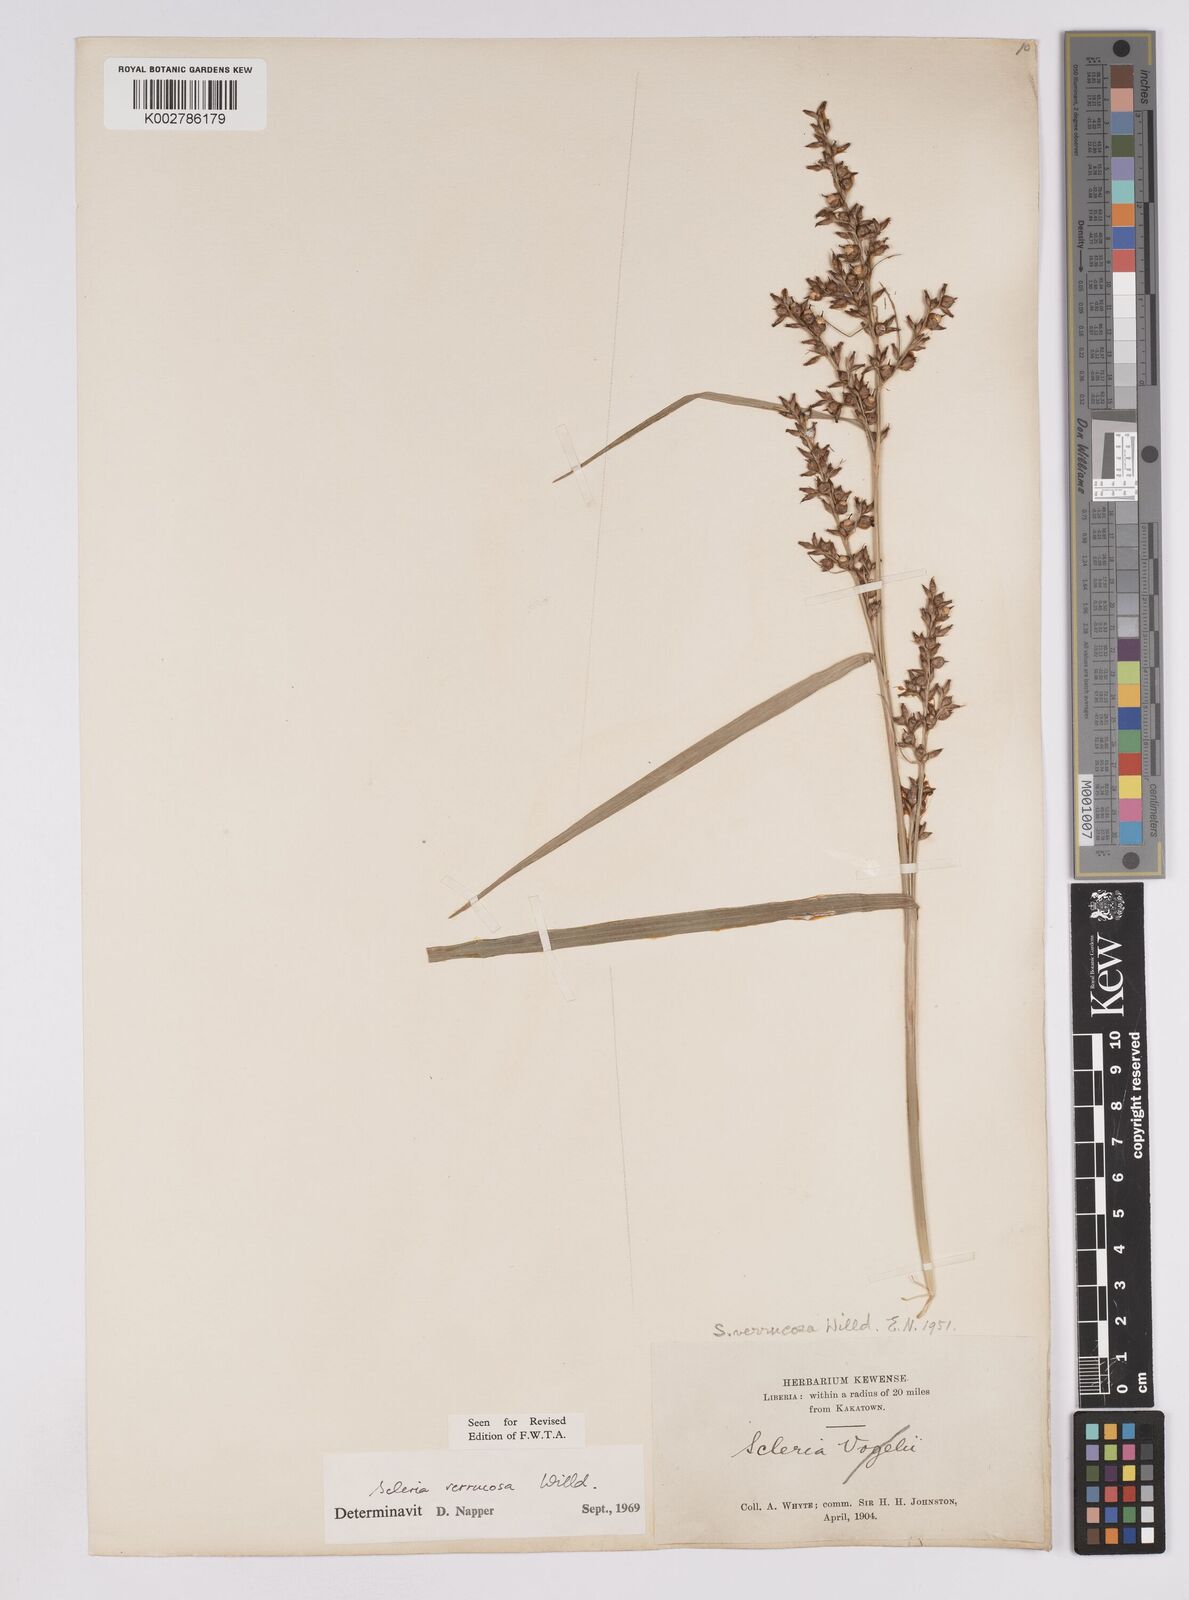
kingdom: Plantae
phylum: Tracheophyta
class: Liliopsida
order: Poales
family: Cyperaceae
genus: Scleria
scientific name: Scleria verrucosa
